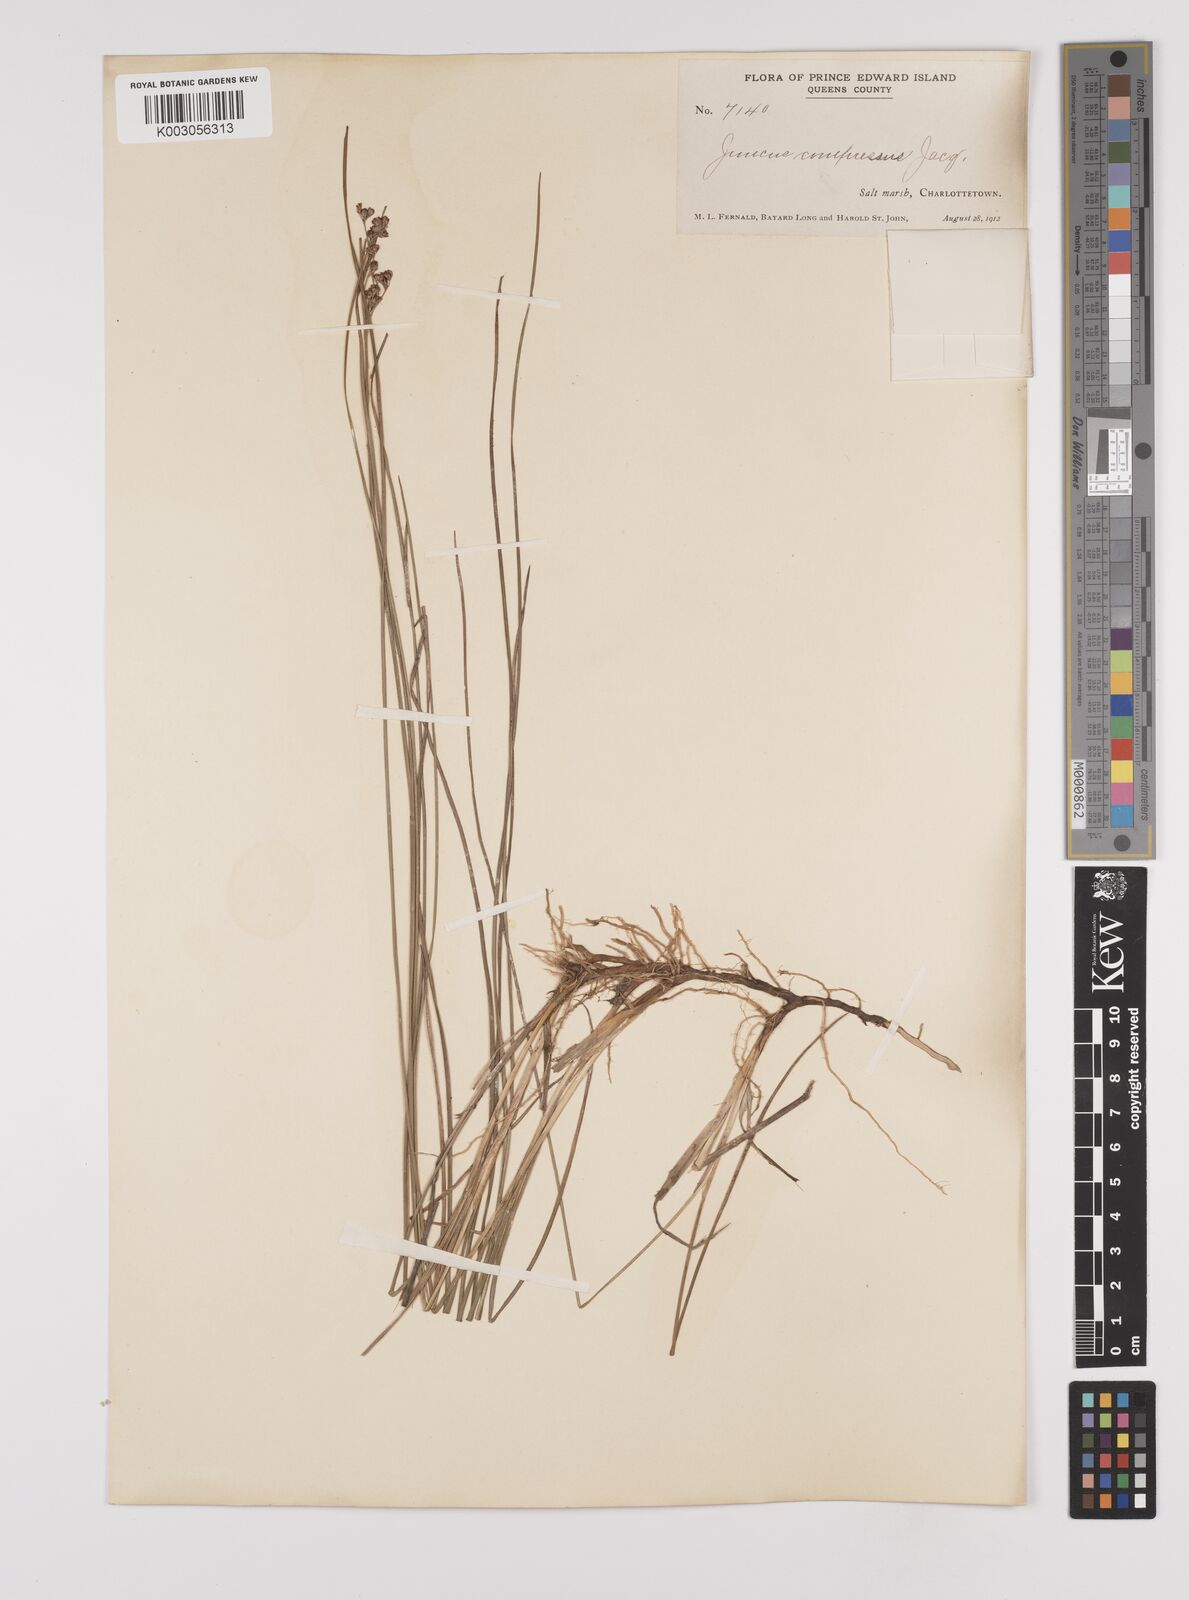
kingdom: Plantae
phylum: Tracheophyta
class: Liliopsida
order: Poales
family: Juncaceae
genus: Juncus
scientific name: Juncus compressus
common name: Round-fruited rush
